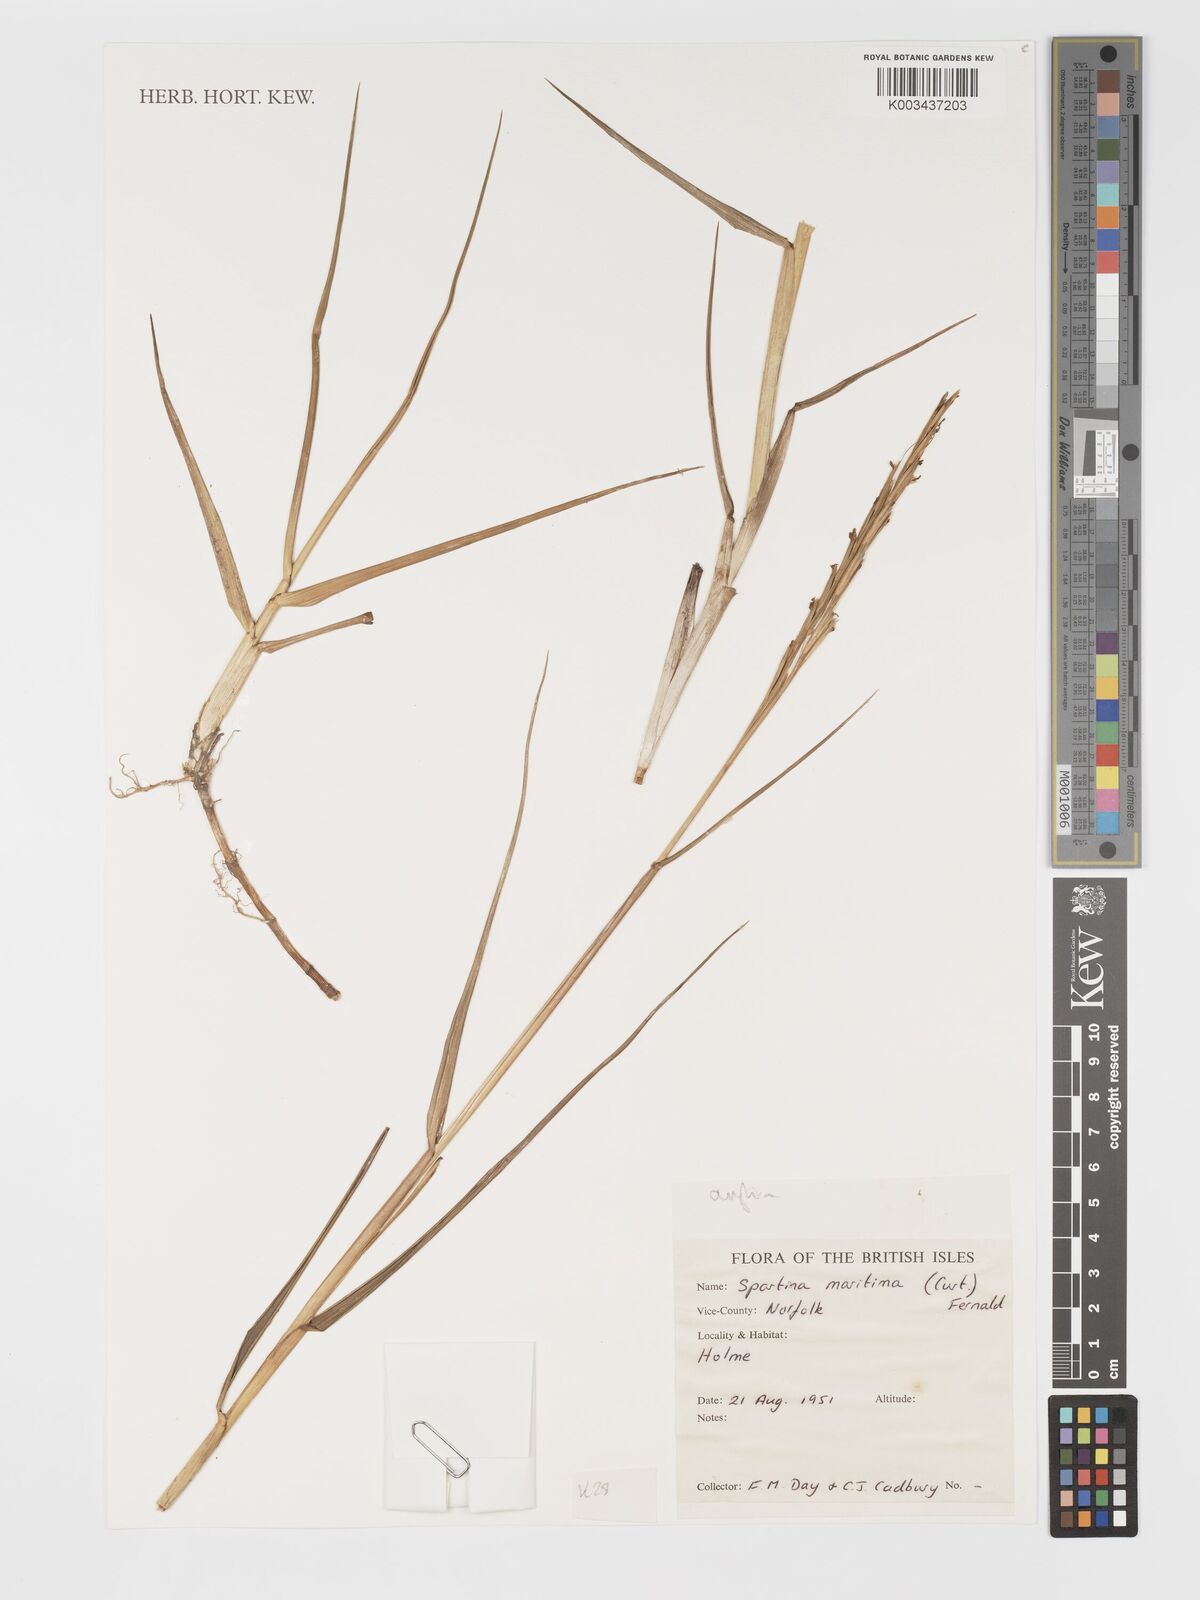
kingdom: Plantae
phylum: Tracheophyta
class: Liliopsida
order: Poales
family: Poaceae
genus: Sporobolus
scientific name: Sporobolus maritimus
